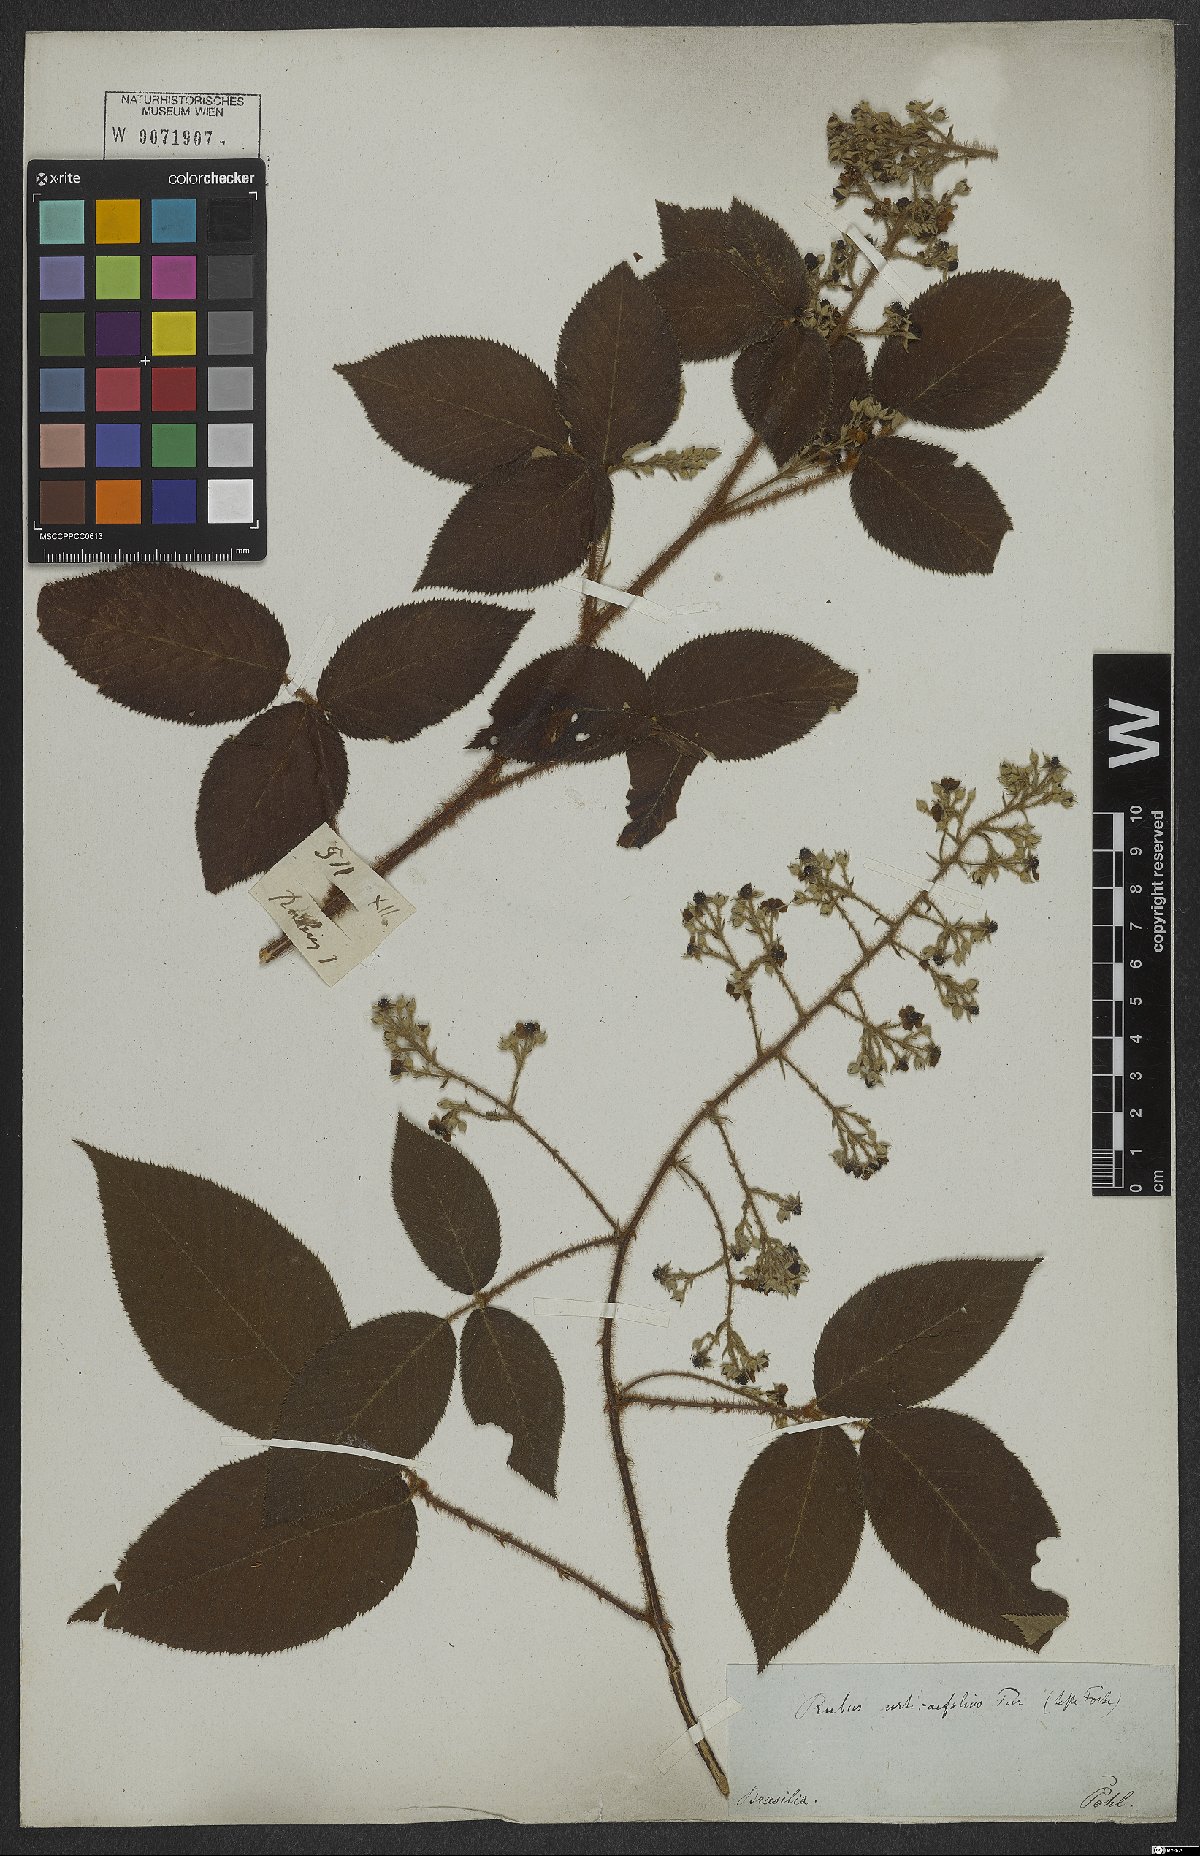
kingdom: Plantae
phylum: Tracheophyta
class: Magnoliopsida
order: Rosales
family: Rosaceae
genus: Rubus
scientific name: Rubus urticifolius
